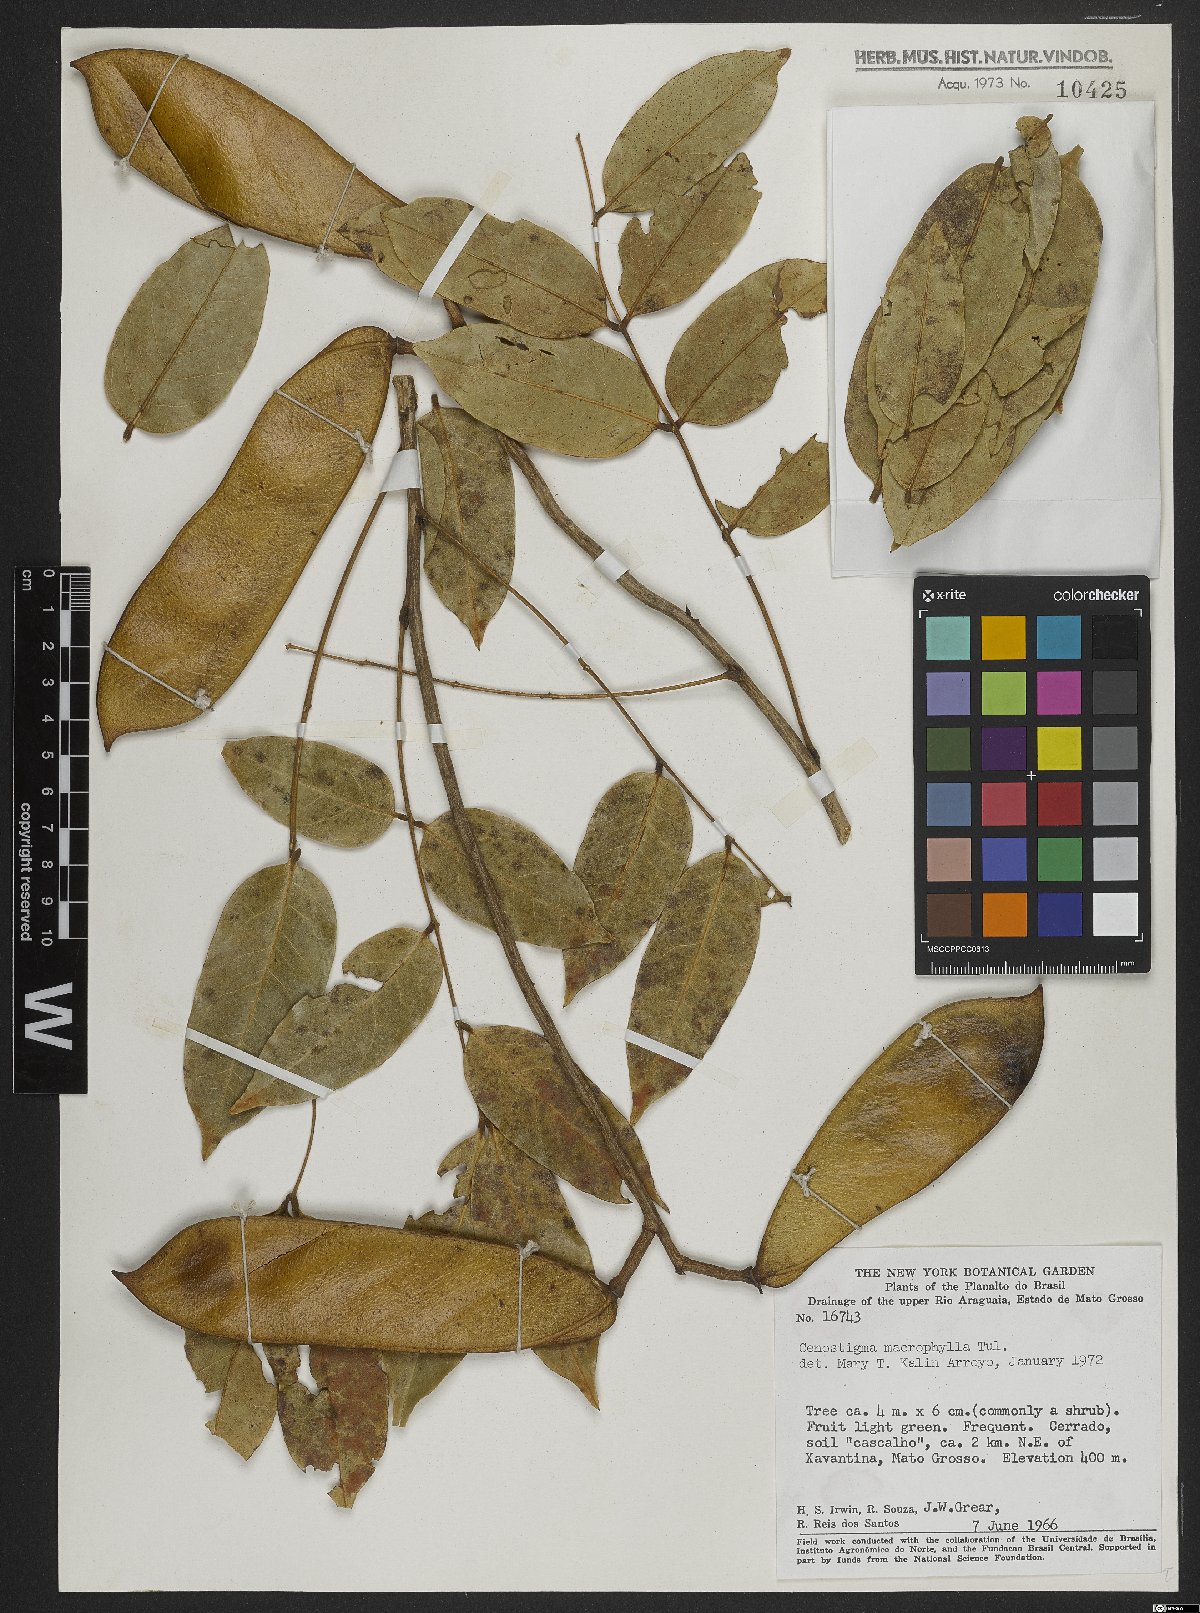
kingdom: Plantae
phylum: Tracheophyta
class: Magnoliopsida
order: Fabales
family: Fabaceae
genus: Cenostigma
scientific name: Cenostigma macrophyllum
